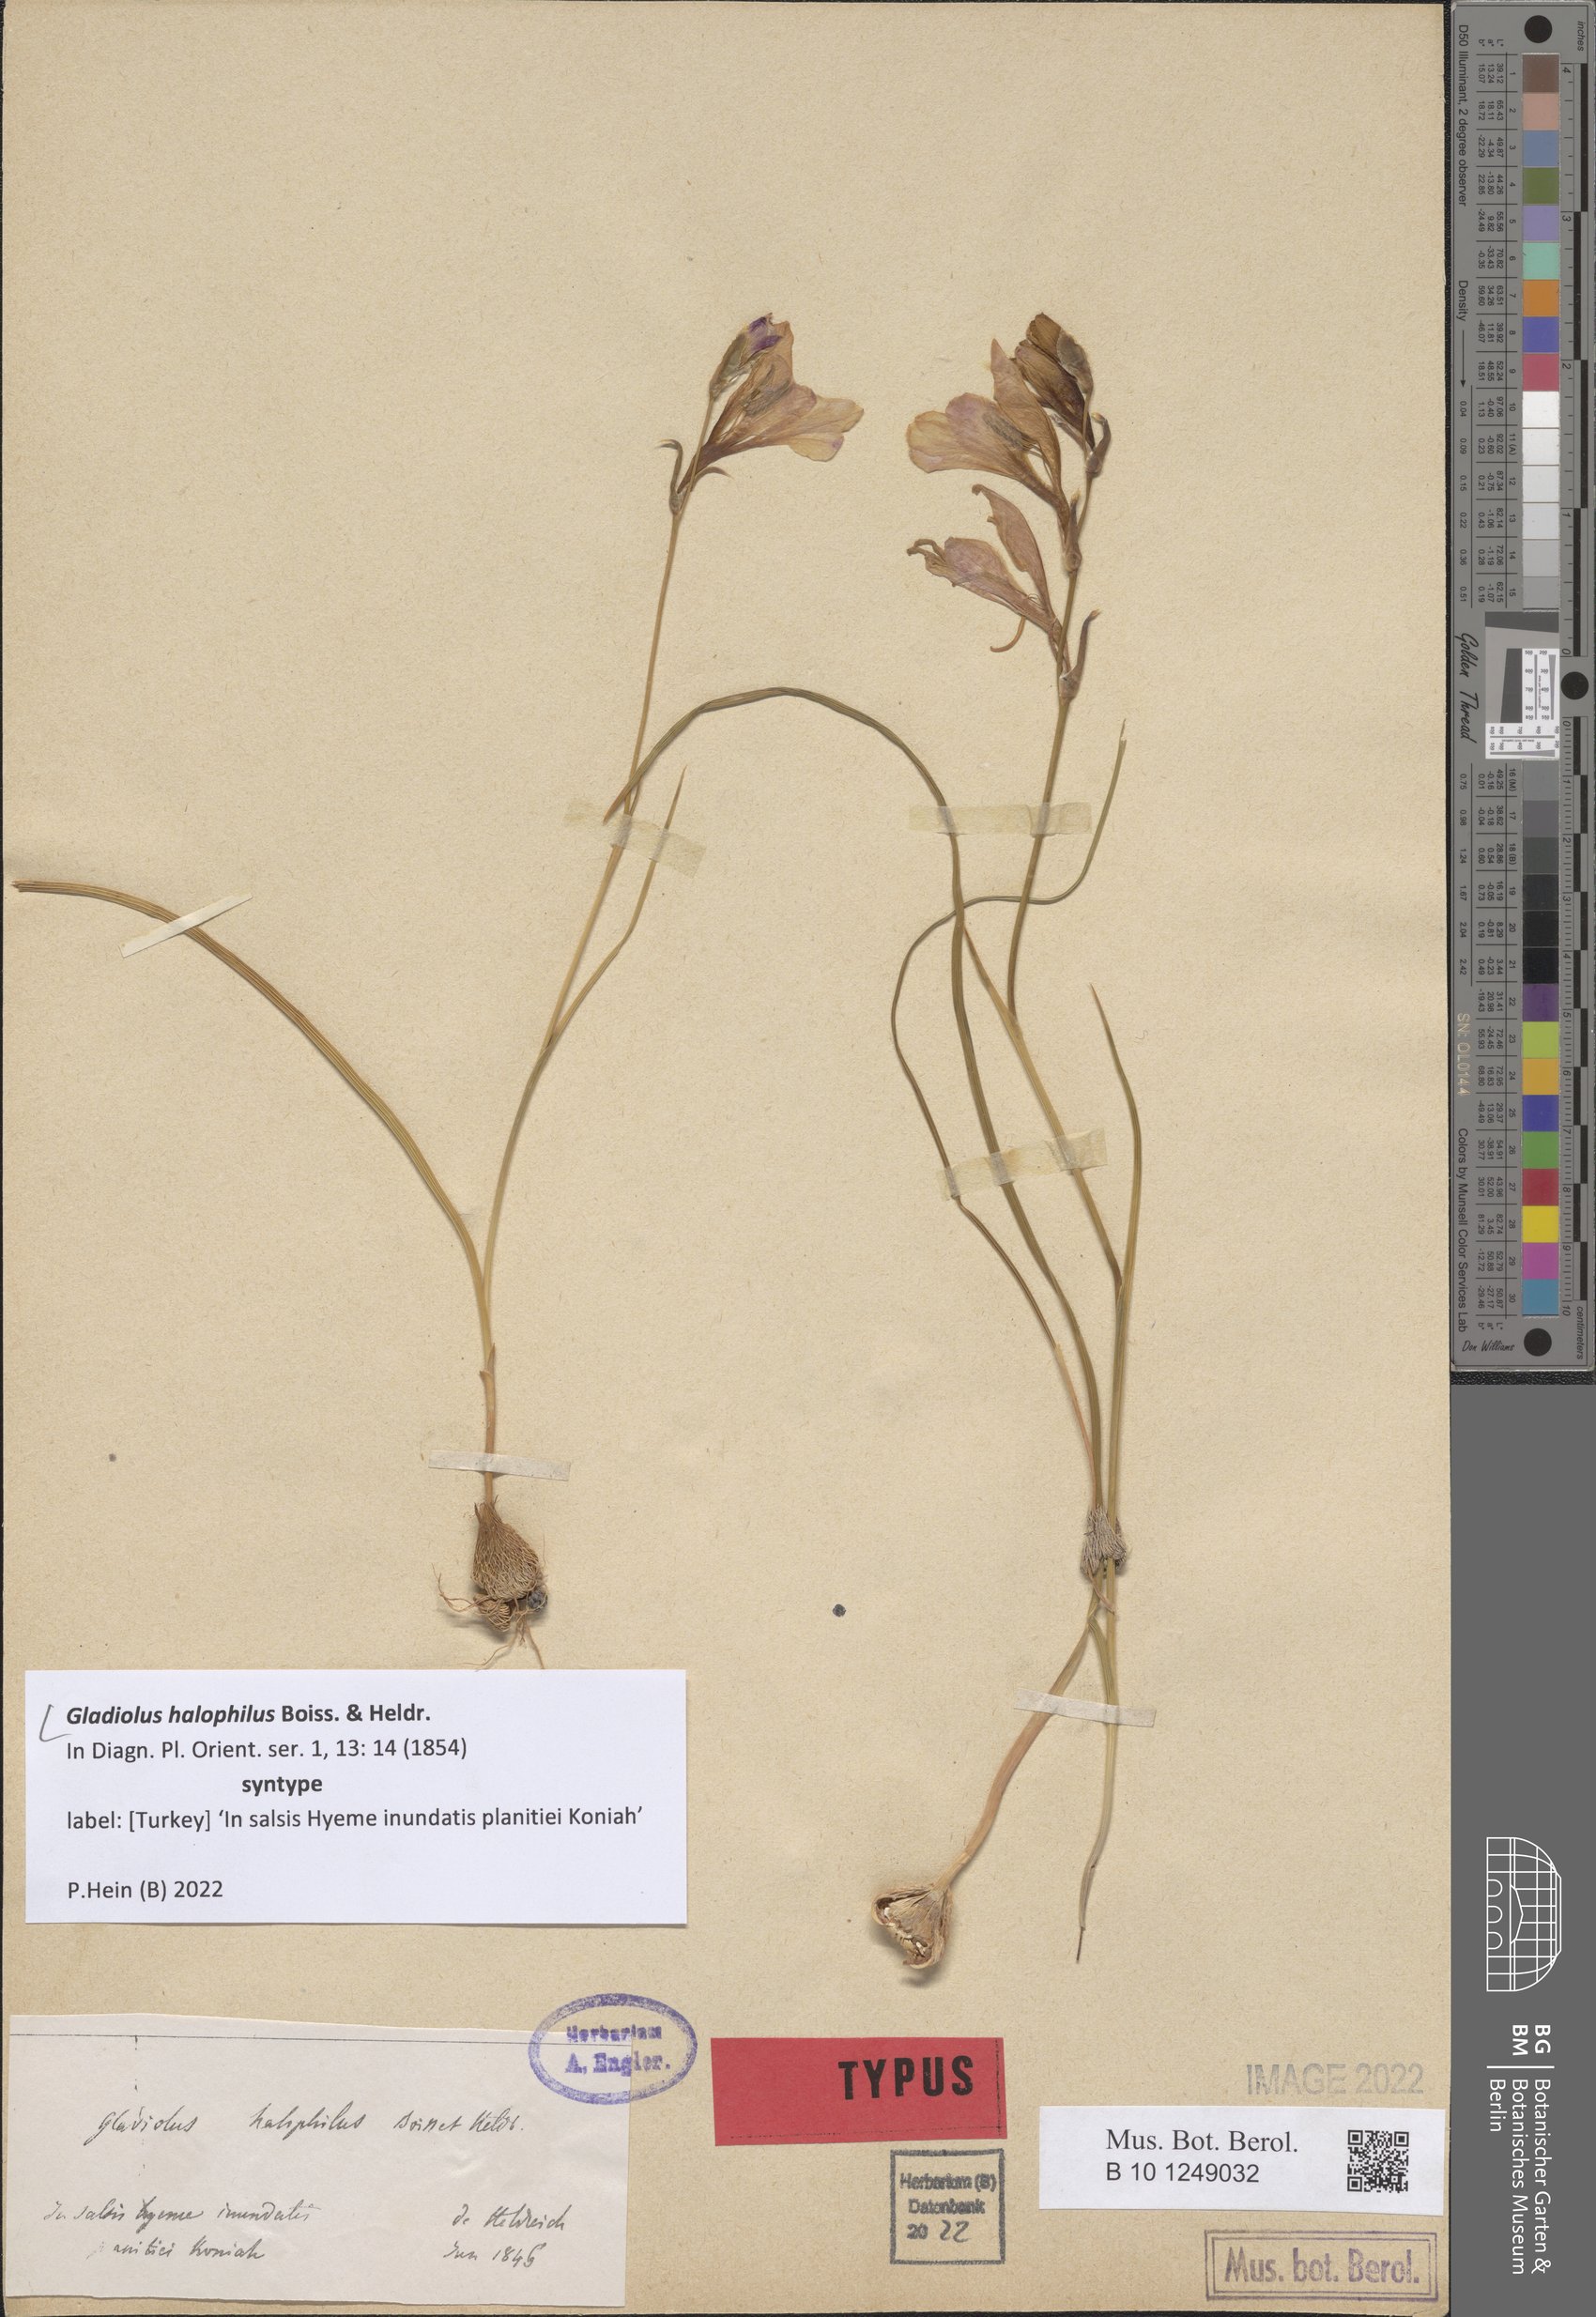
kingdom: Plantae
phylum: Tracheophyta
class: Liliopsida
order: Asparagales
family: Iridaceae
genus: Gladiolus
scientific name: Gladiolus halophilus
